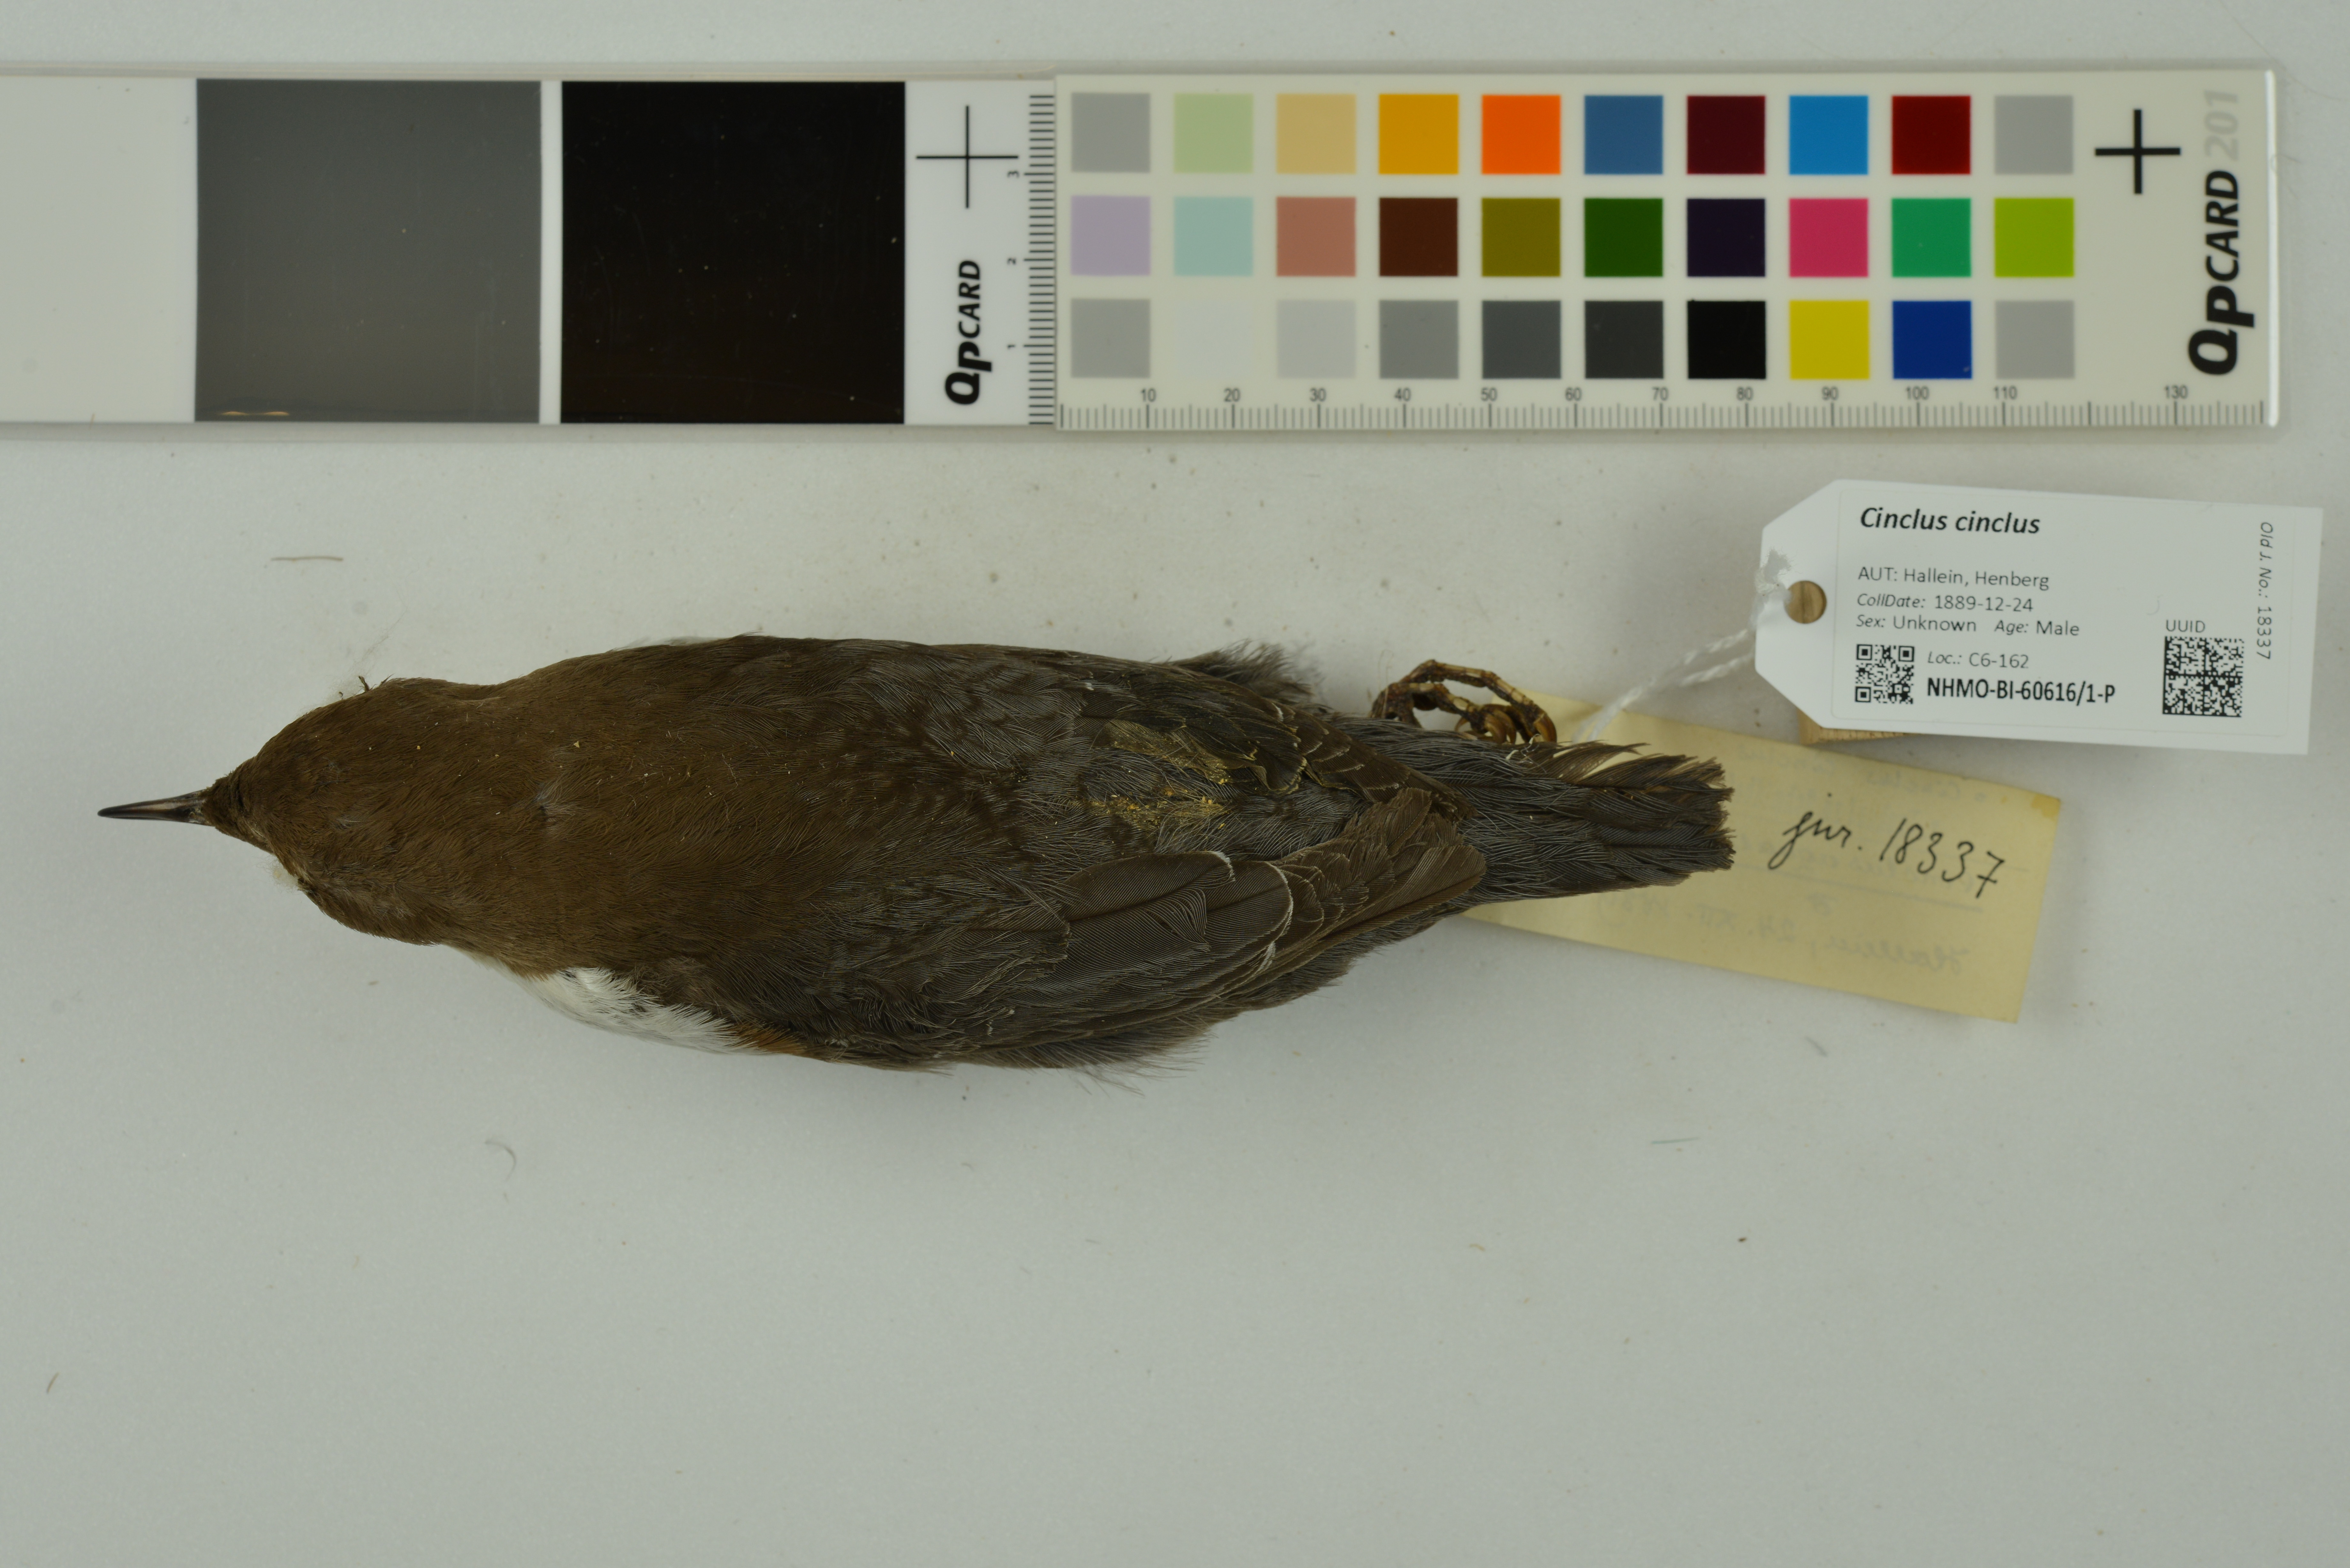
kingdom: Animalia
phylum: Chordata
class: Aves
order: Passeriformes
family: Cinclidae
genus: Cinclus
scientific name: Cinclus cinclus
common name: White-throated dipper
